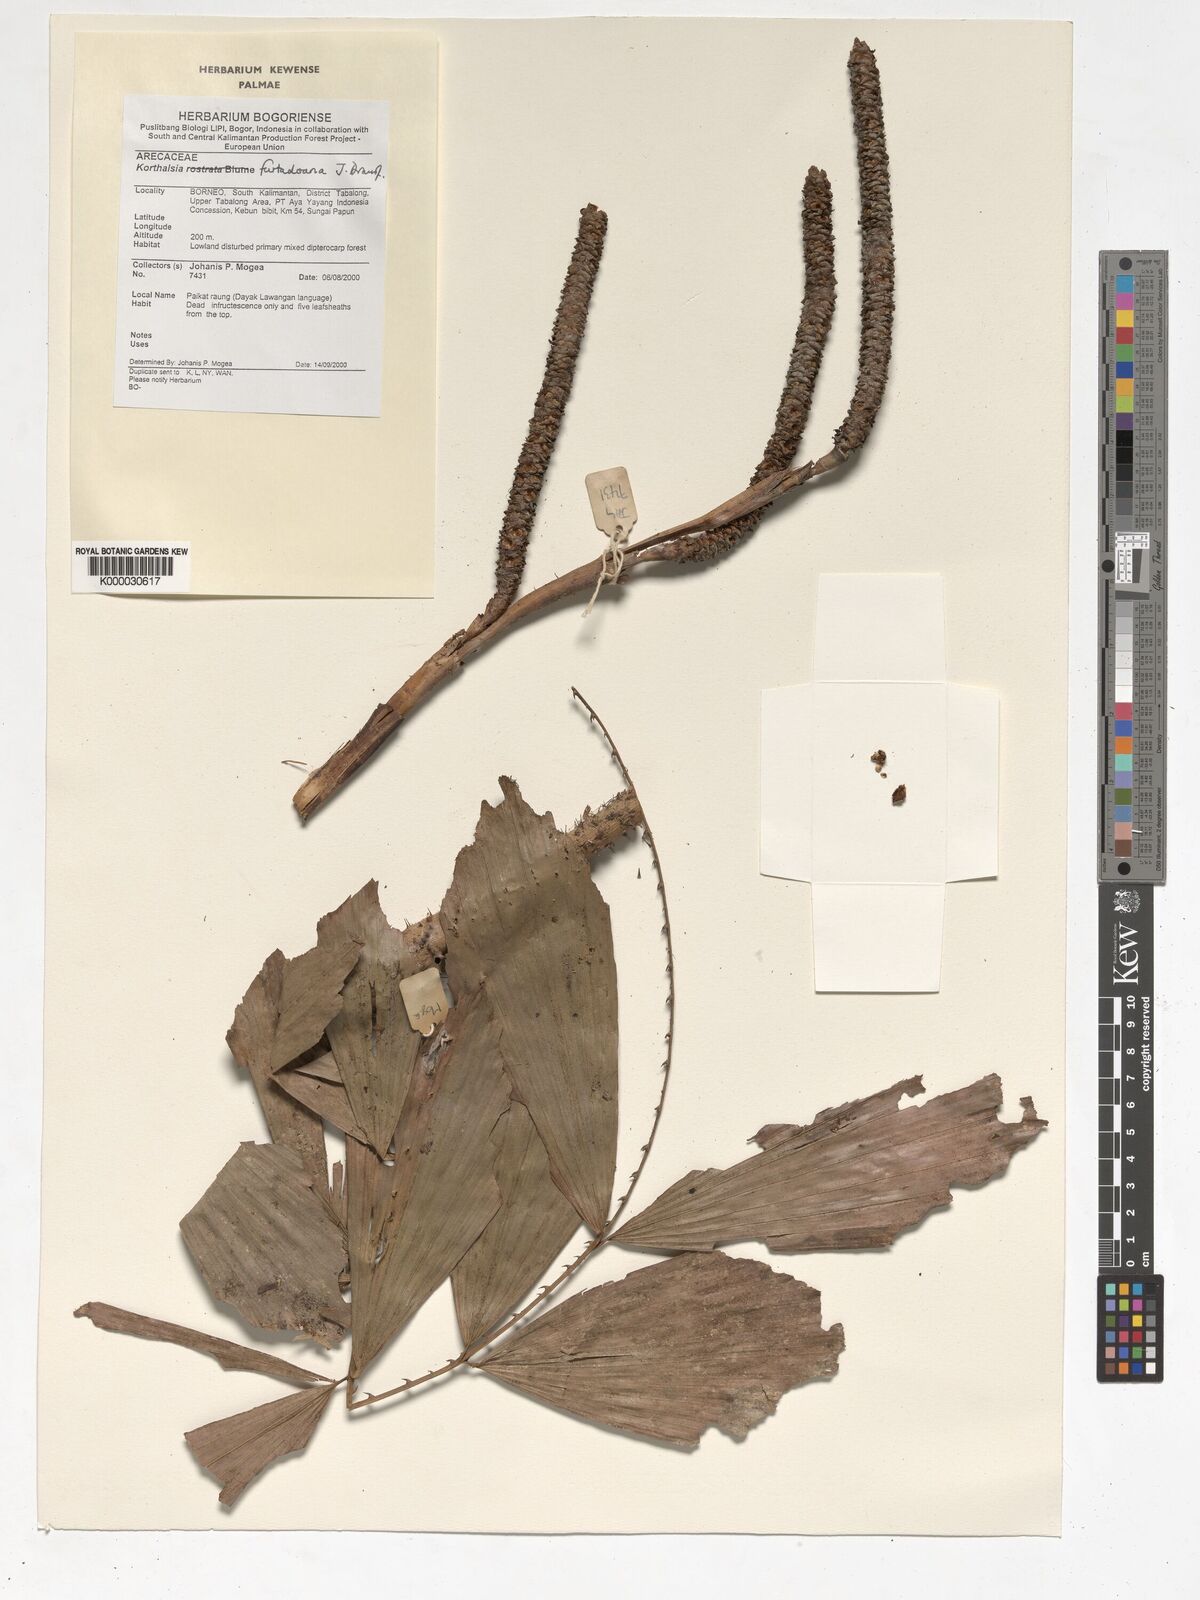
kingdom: Plantae
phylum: Tracheophyta
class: Liliopsida
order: Arecales
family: Arecaceae
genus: Korthalsia
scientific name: Korthalsia furtadoana
